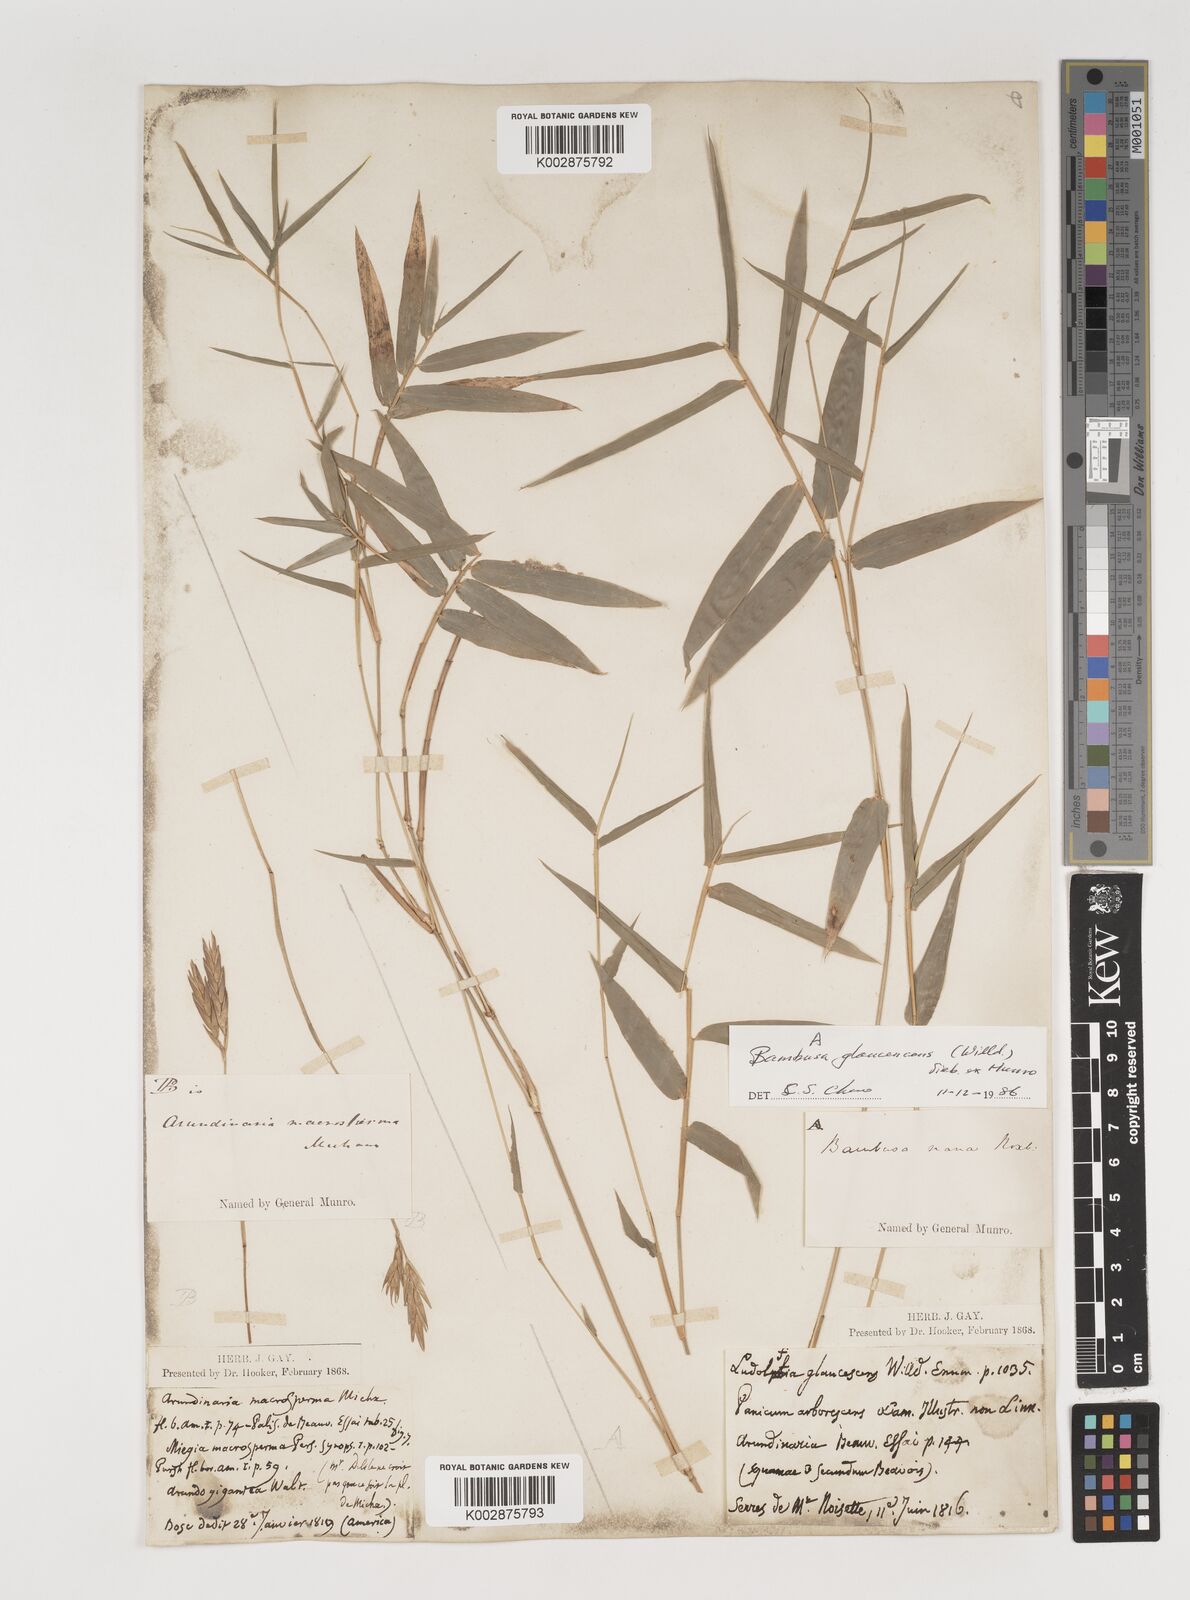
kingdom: Plantae
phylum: Tracheophyta
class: Liliopsida
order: Poales
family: Poaceae
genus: Bambusa
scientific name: Bambusa multiplex
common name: Hedge bamboo
